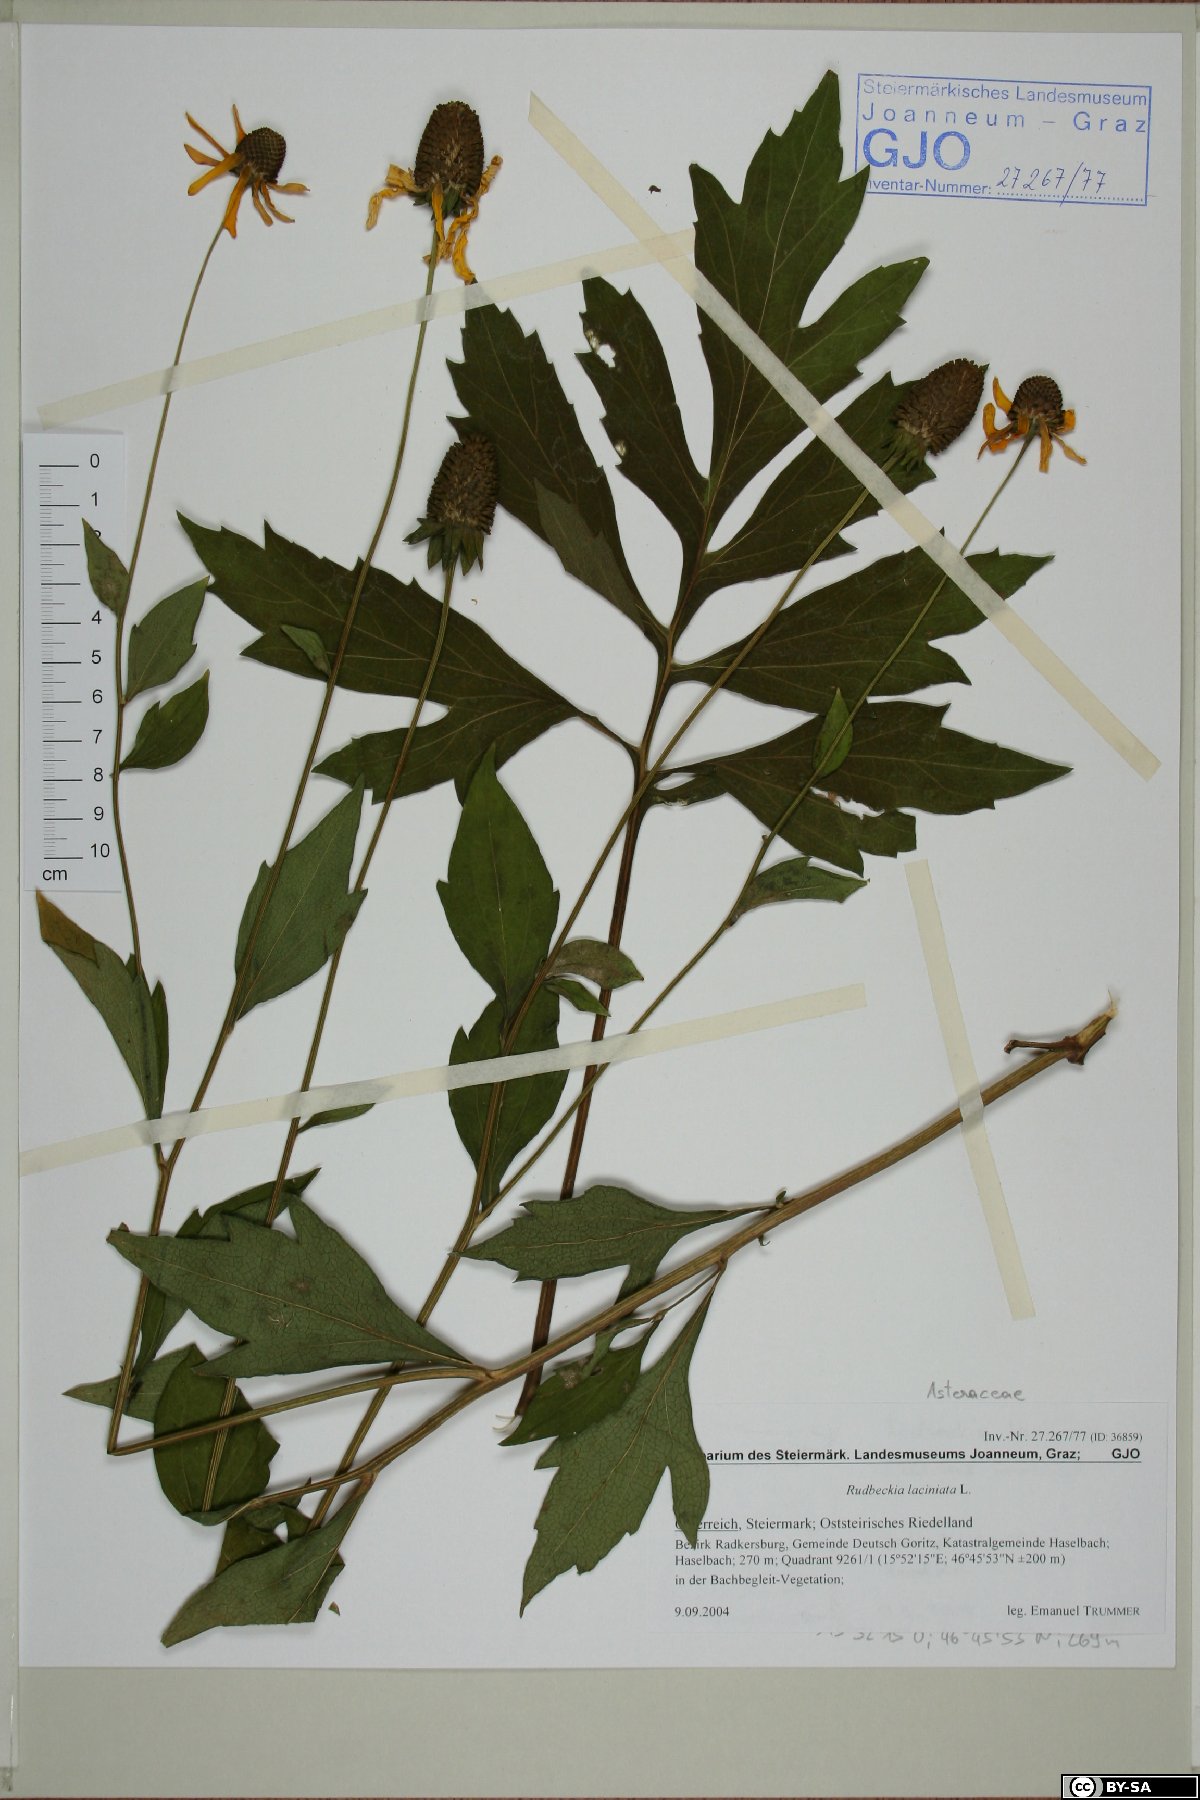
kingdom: Plantae
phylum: Tracheophyta
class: Magnoliopsida
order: Asterales
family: Asteraceae
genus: Rudbeckia
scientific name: Rudbeckia laciniata
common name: Coneflower
